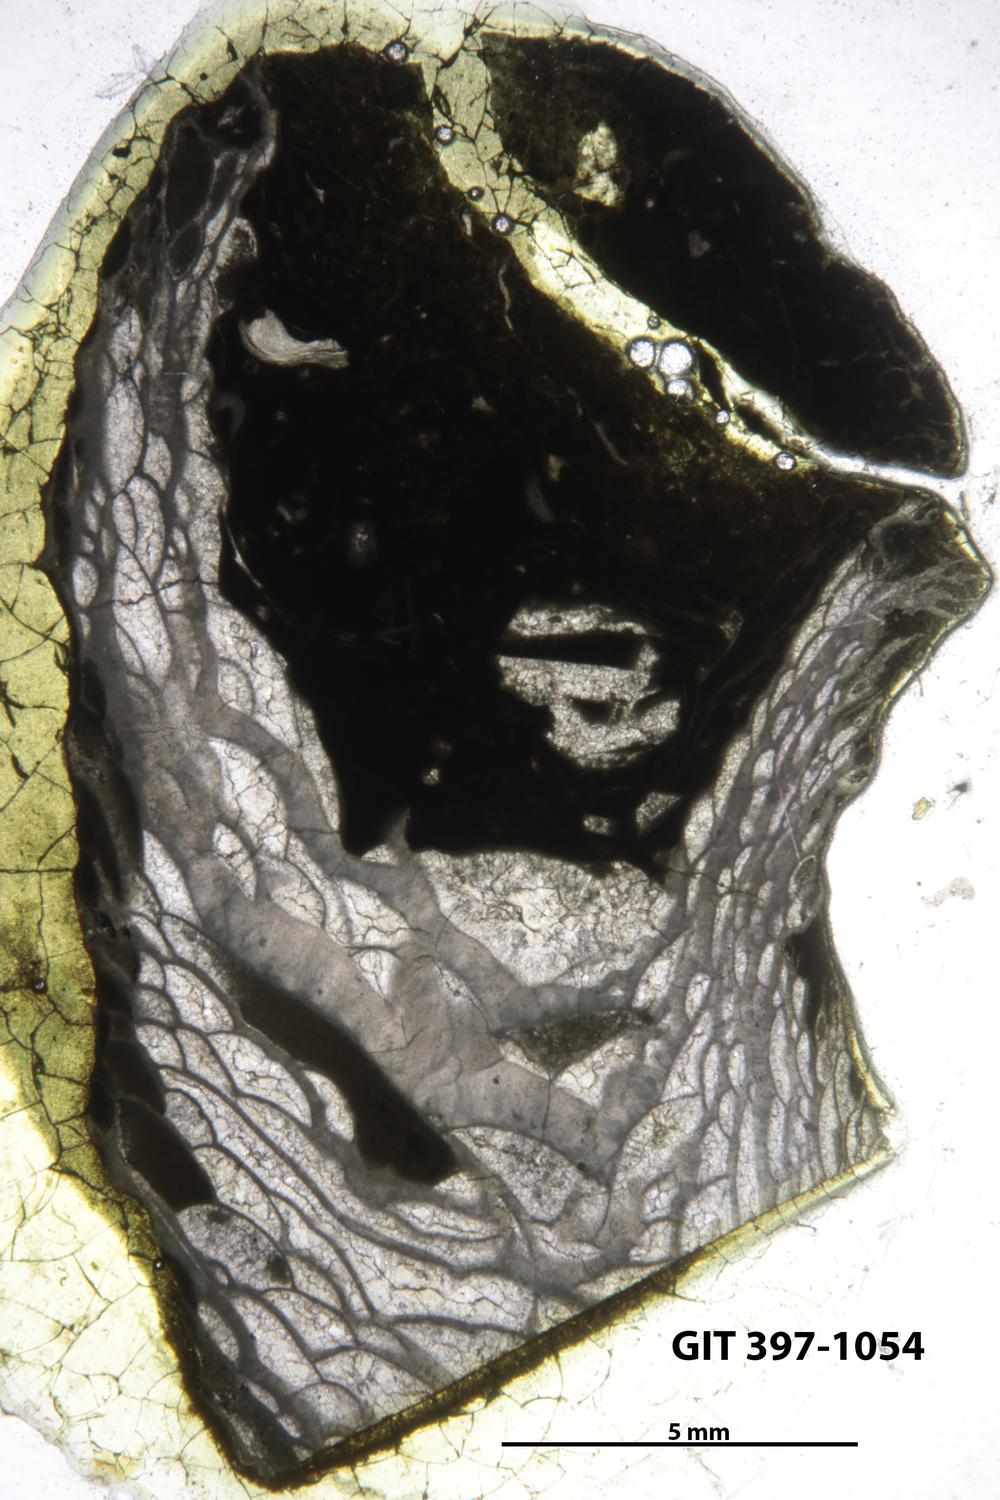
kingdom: Animalia
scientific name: Animalia
